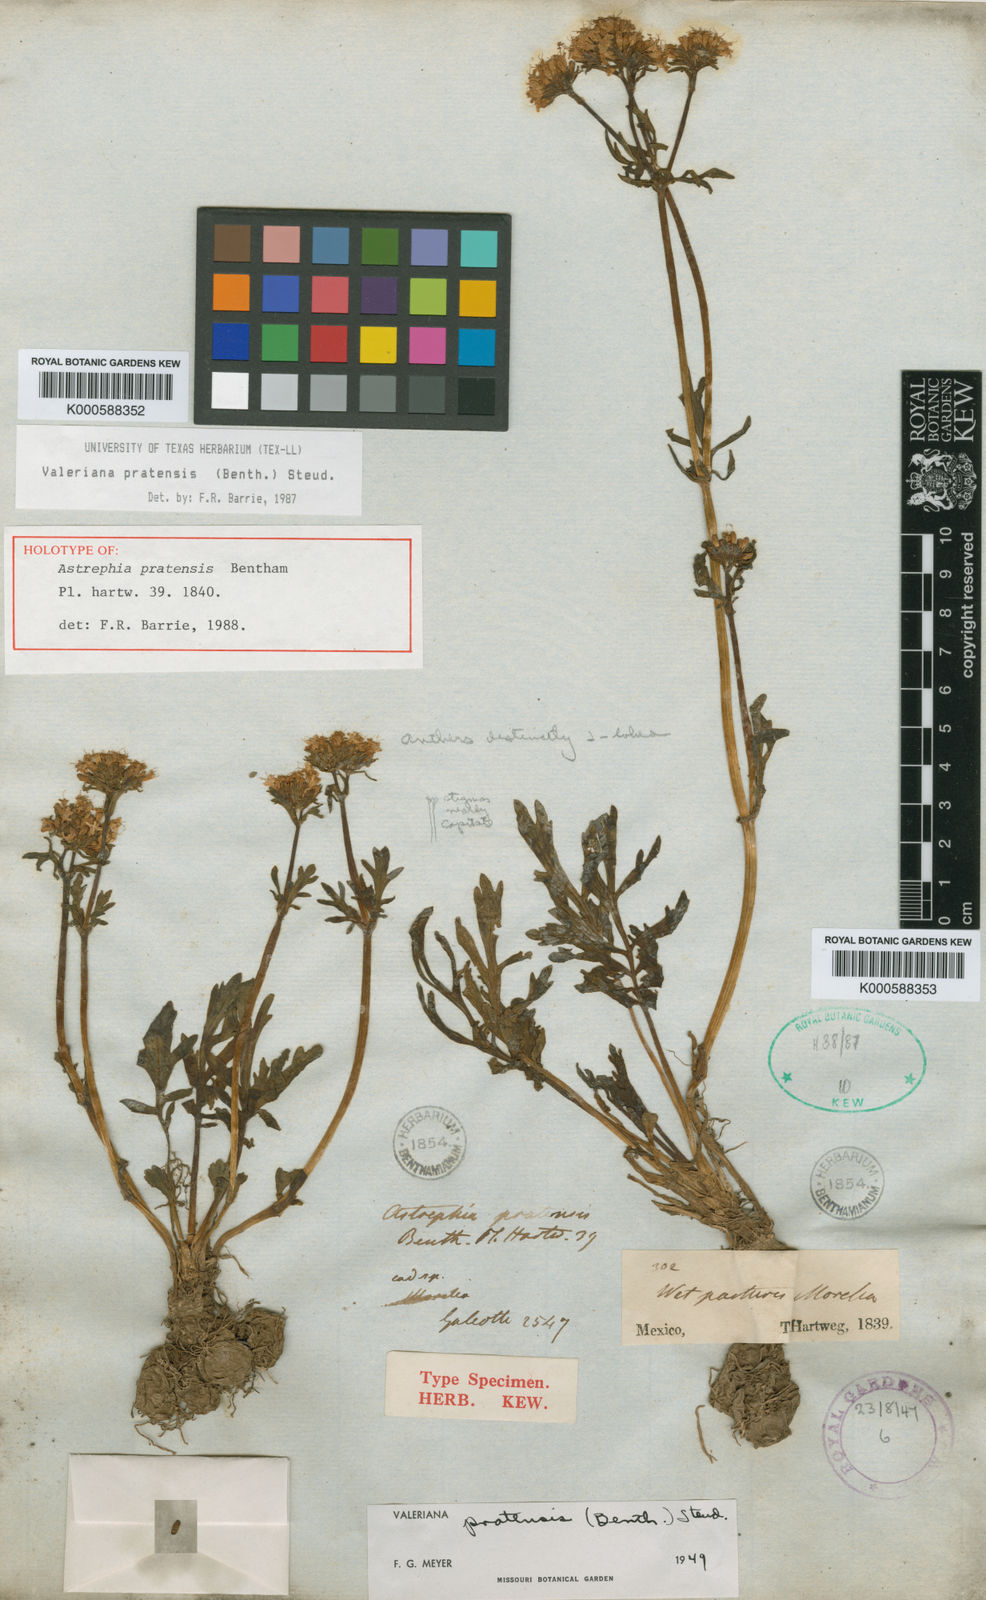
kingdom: Plantae
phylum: Tracheophyta
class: Magnoliopsida
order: Dipsacales
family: Caprifoliaceae
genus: Valeriana
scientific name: Valeriana galeottiana
